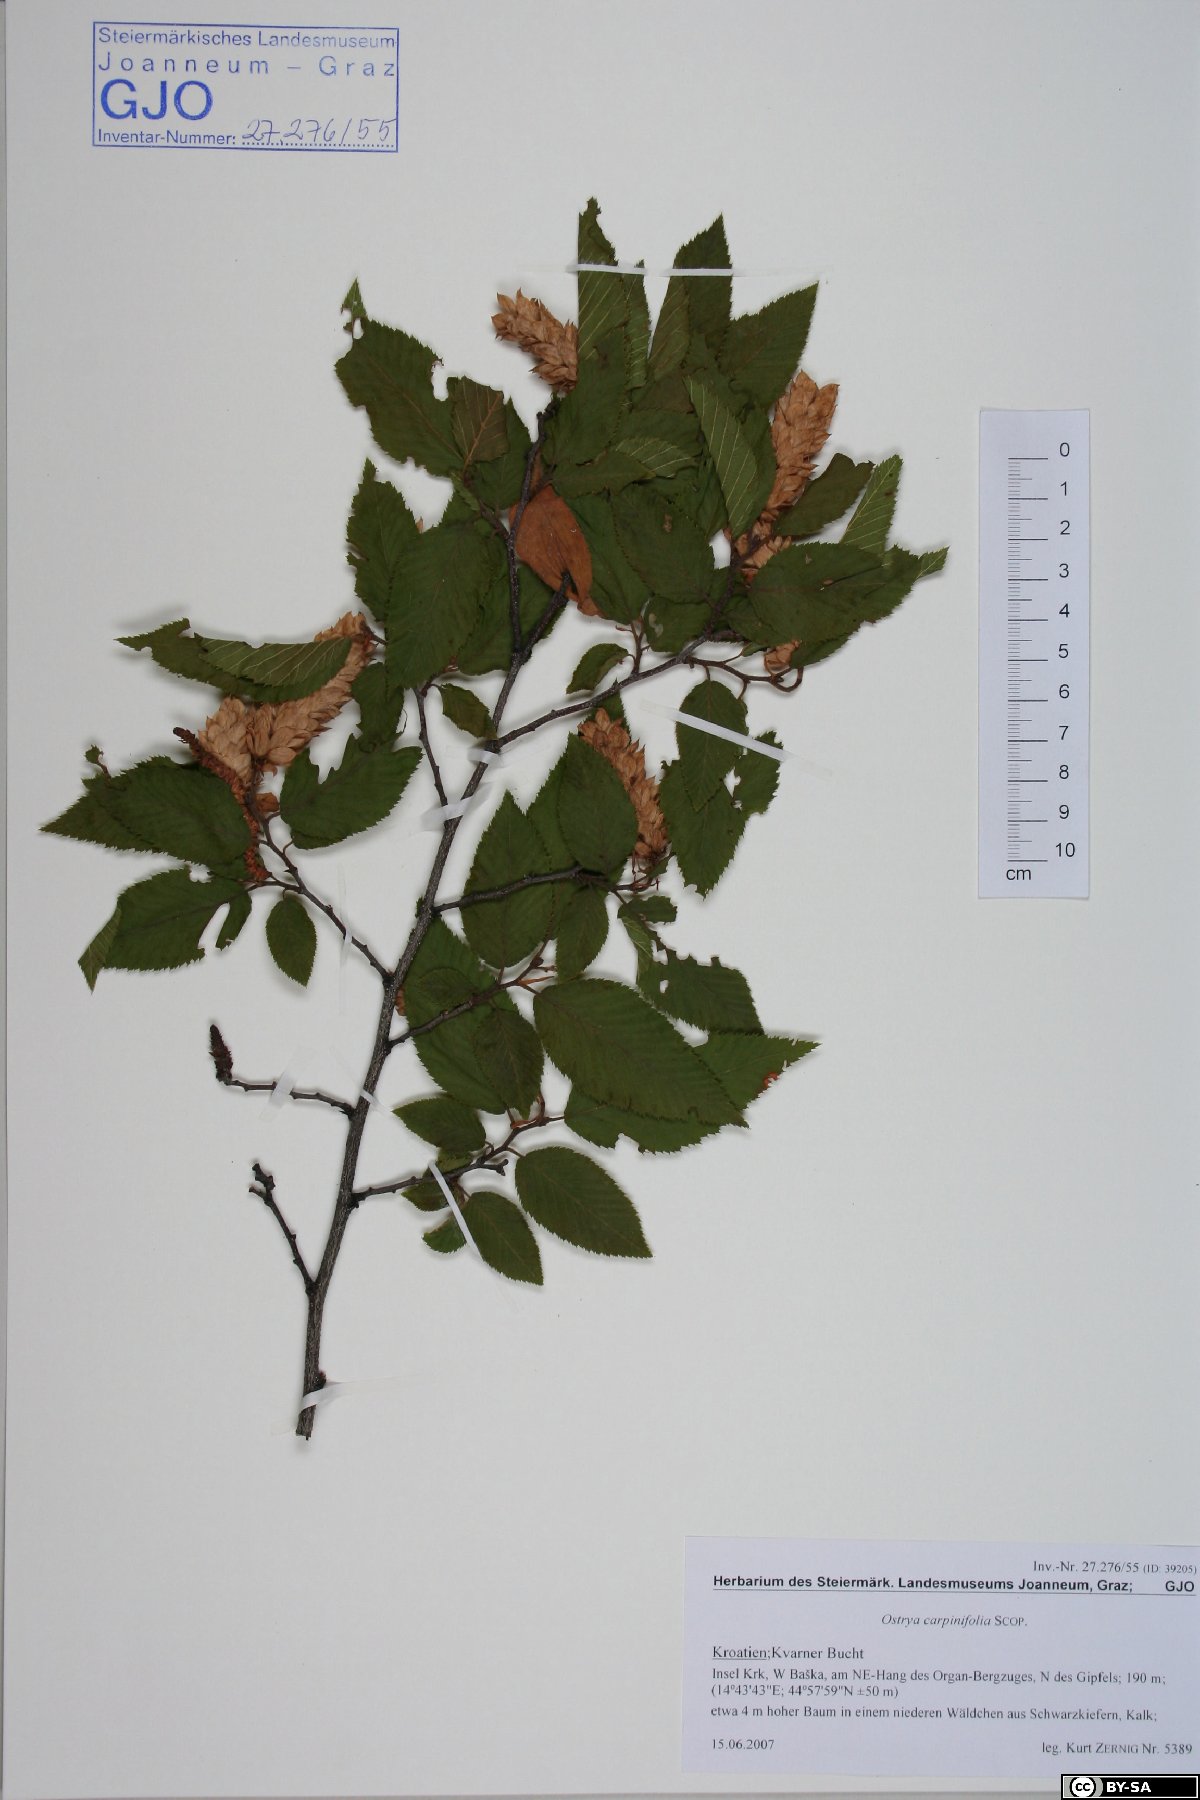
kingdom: Plantae
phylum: Tracheophyta
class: Magnoliopsida
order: Fagales
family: Betulaceae
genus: Ostrya
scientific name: Ostrya carpinifolia
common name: European hop-hornbeam
